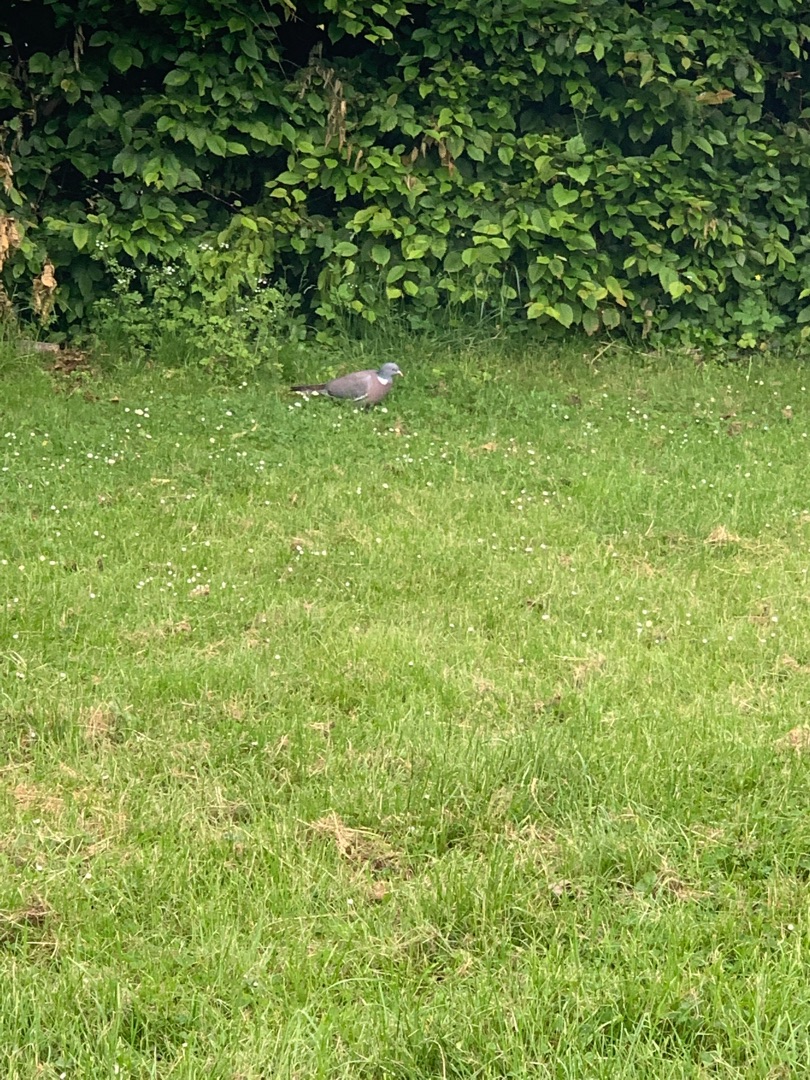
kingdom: Animalia
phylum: Chordata
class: Aves
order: Columbiformes
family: Columbidae
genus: Columba
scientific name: Columba palumbus
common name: Ringdue
